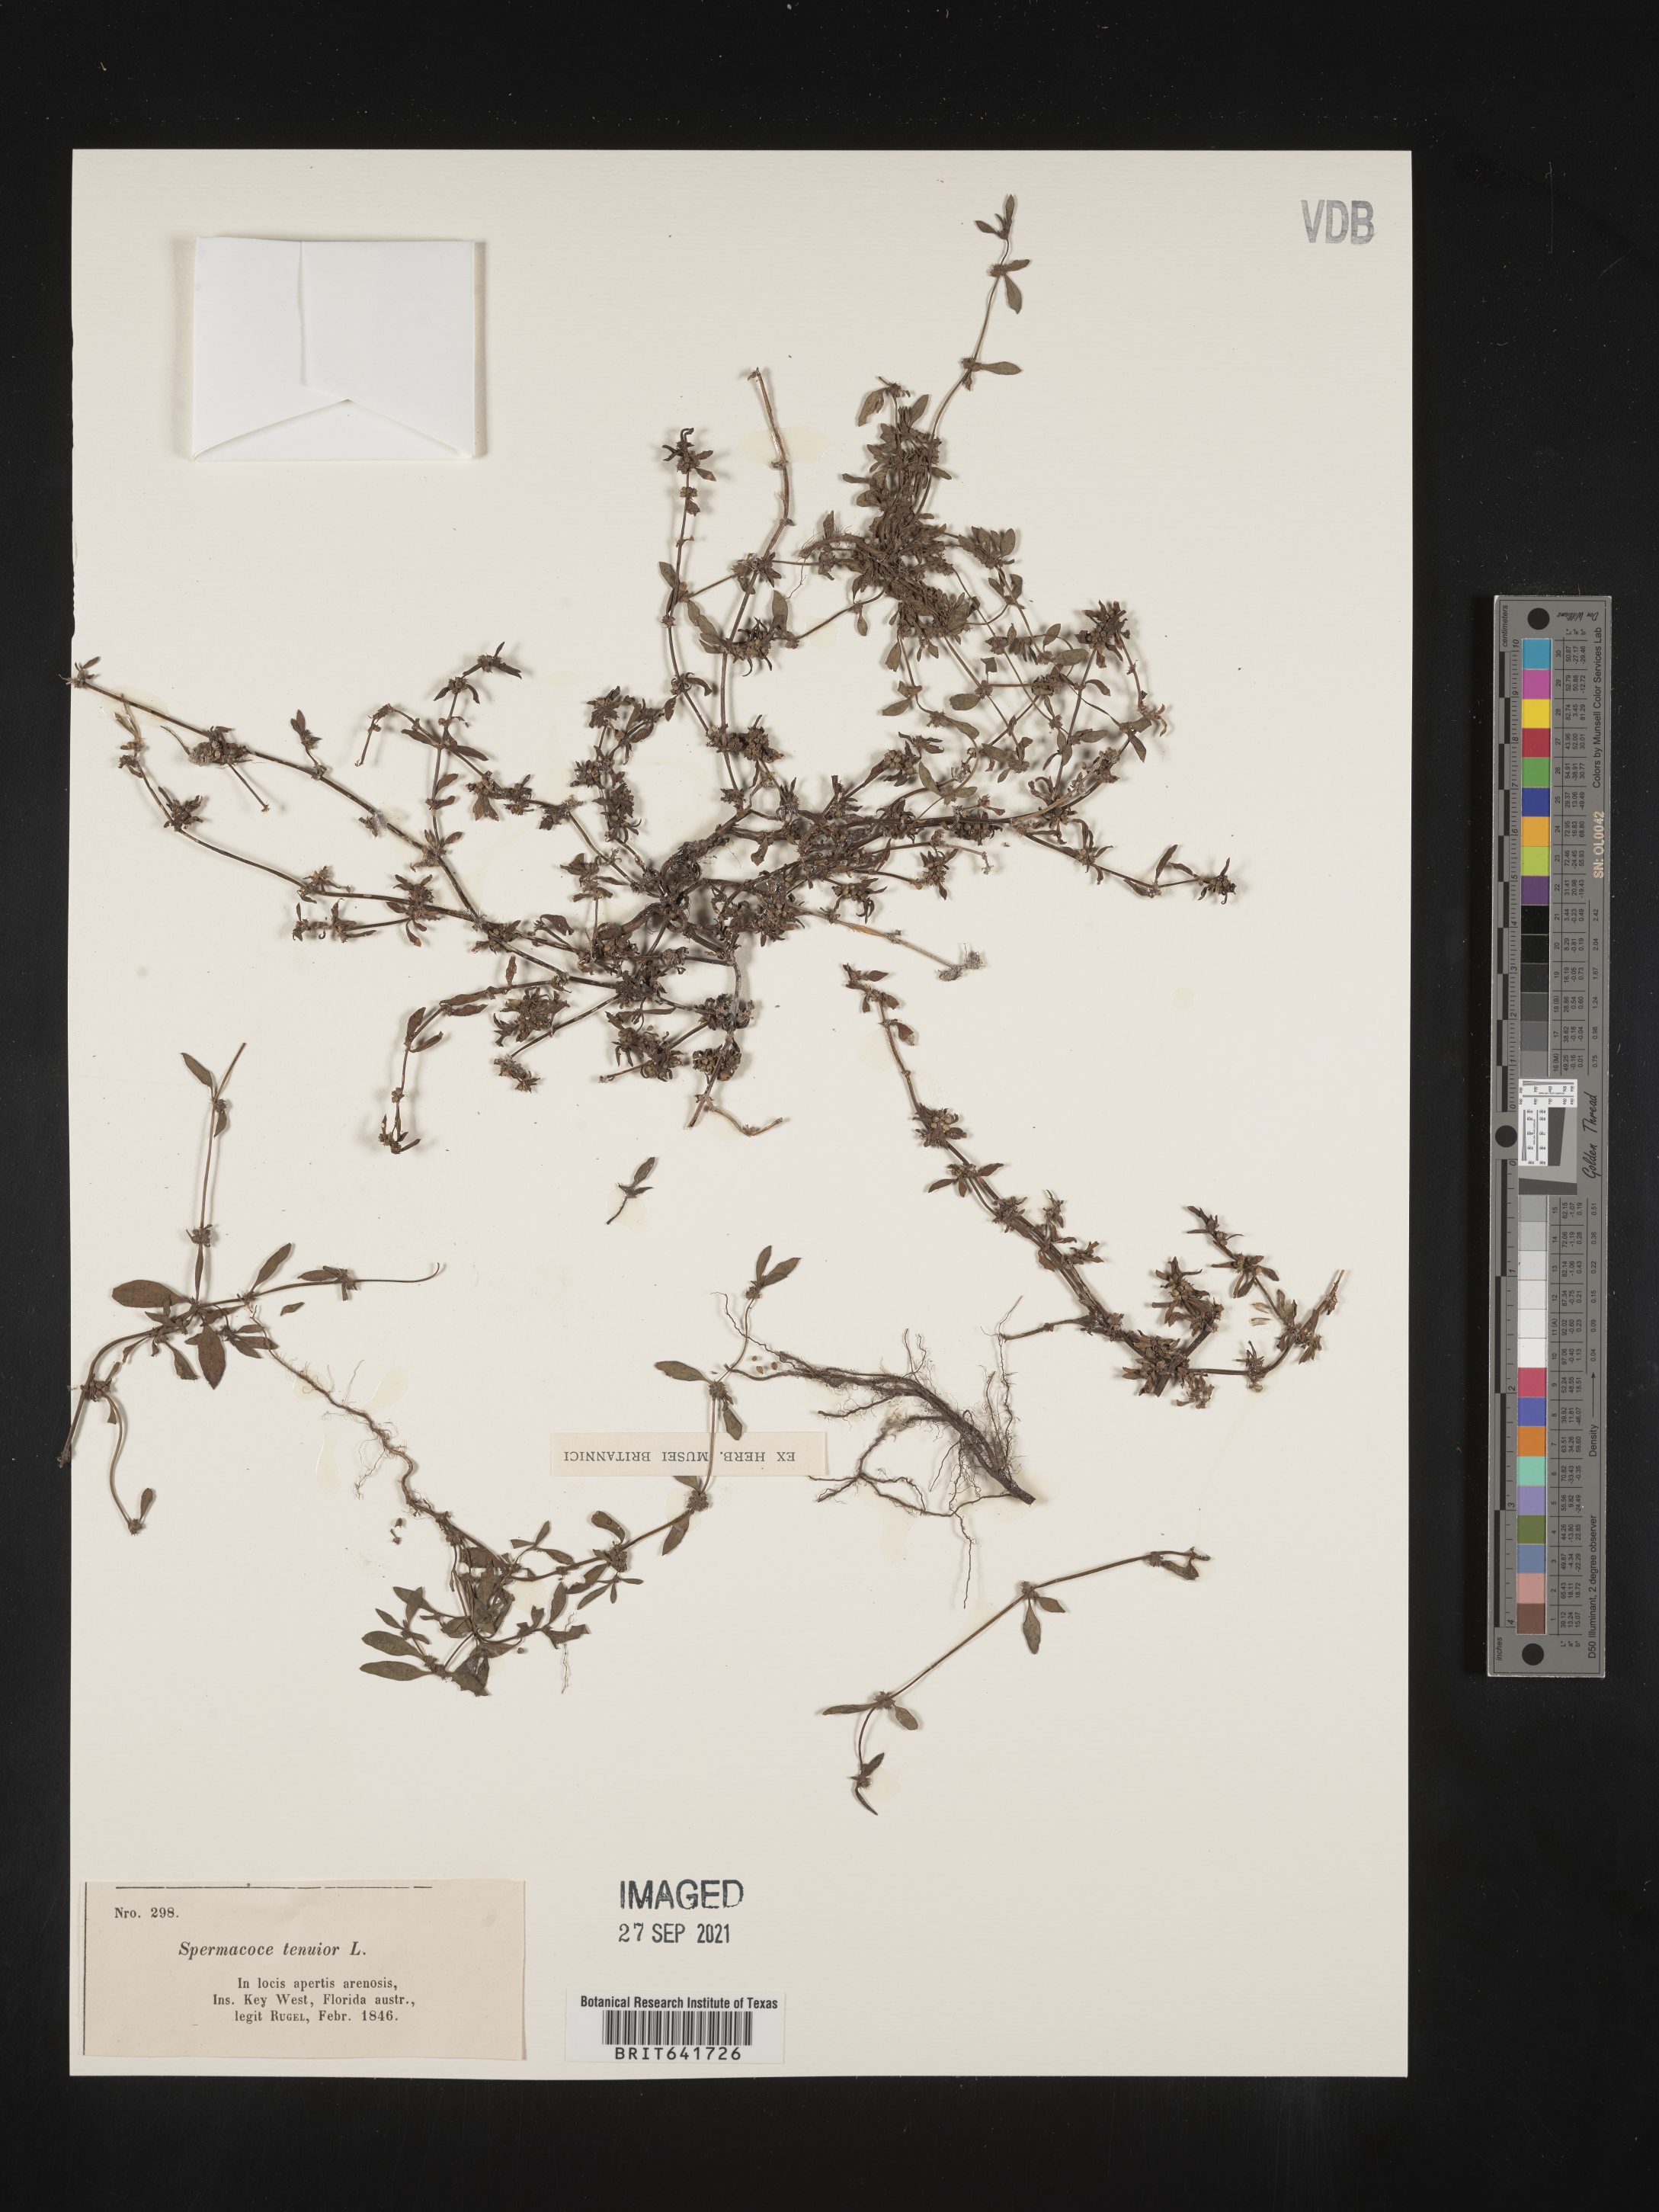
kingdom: Plantae
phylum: Tracheophyta
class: Magnoliopsida
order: Gentianales
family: Rubiaceae
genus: Spermacoce
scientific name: Spermacoce tenuior
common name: River false buttonweed
